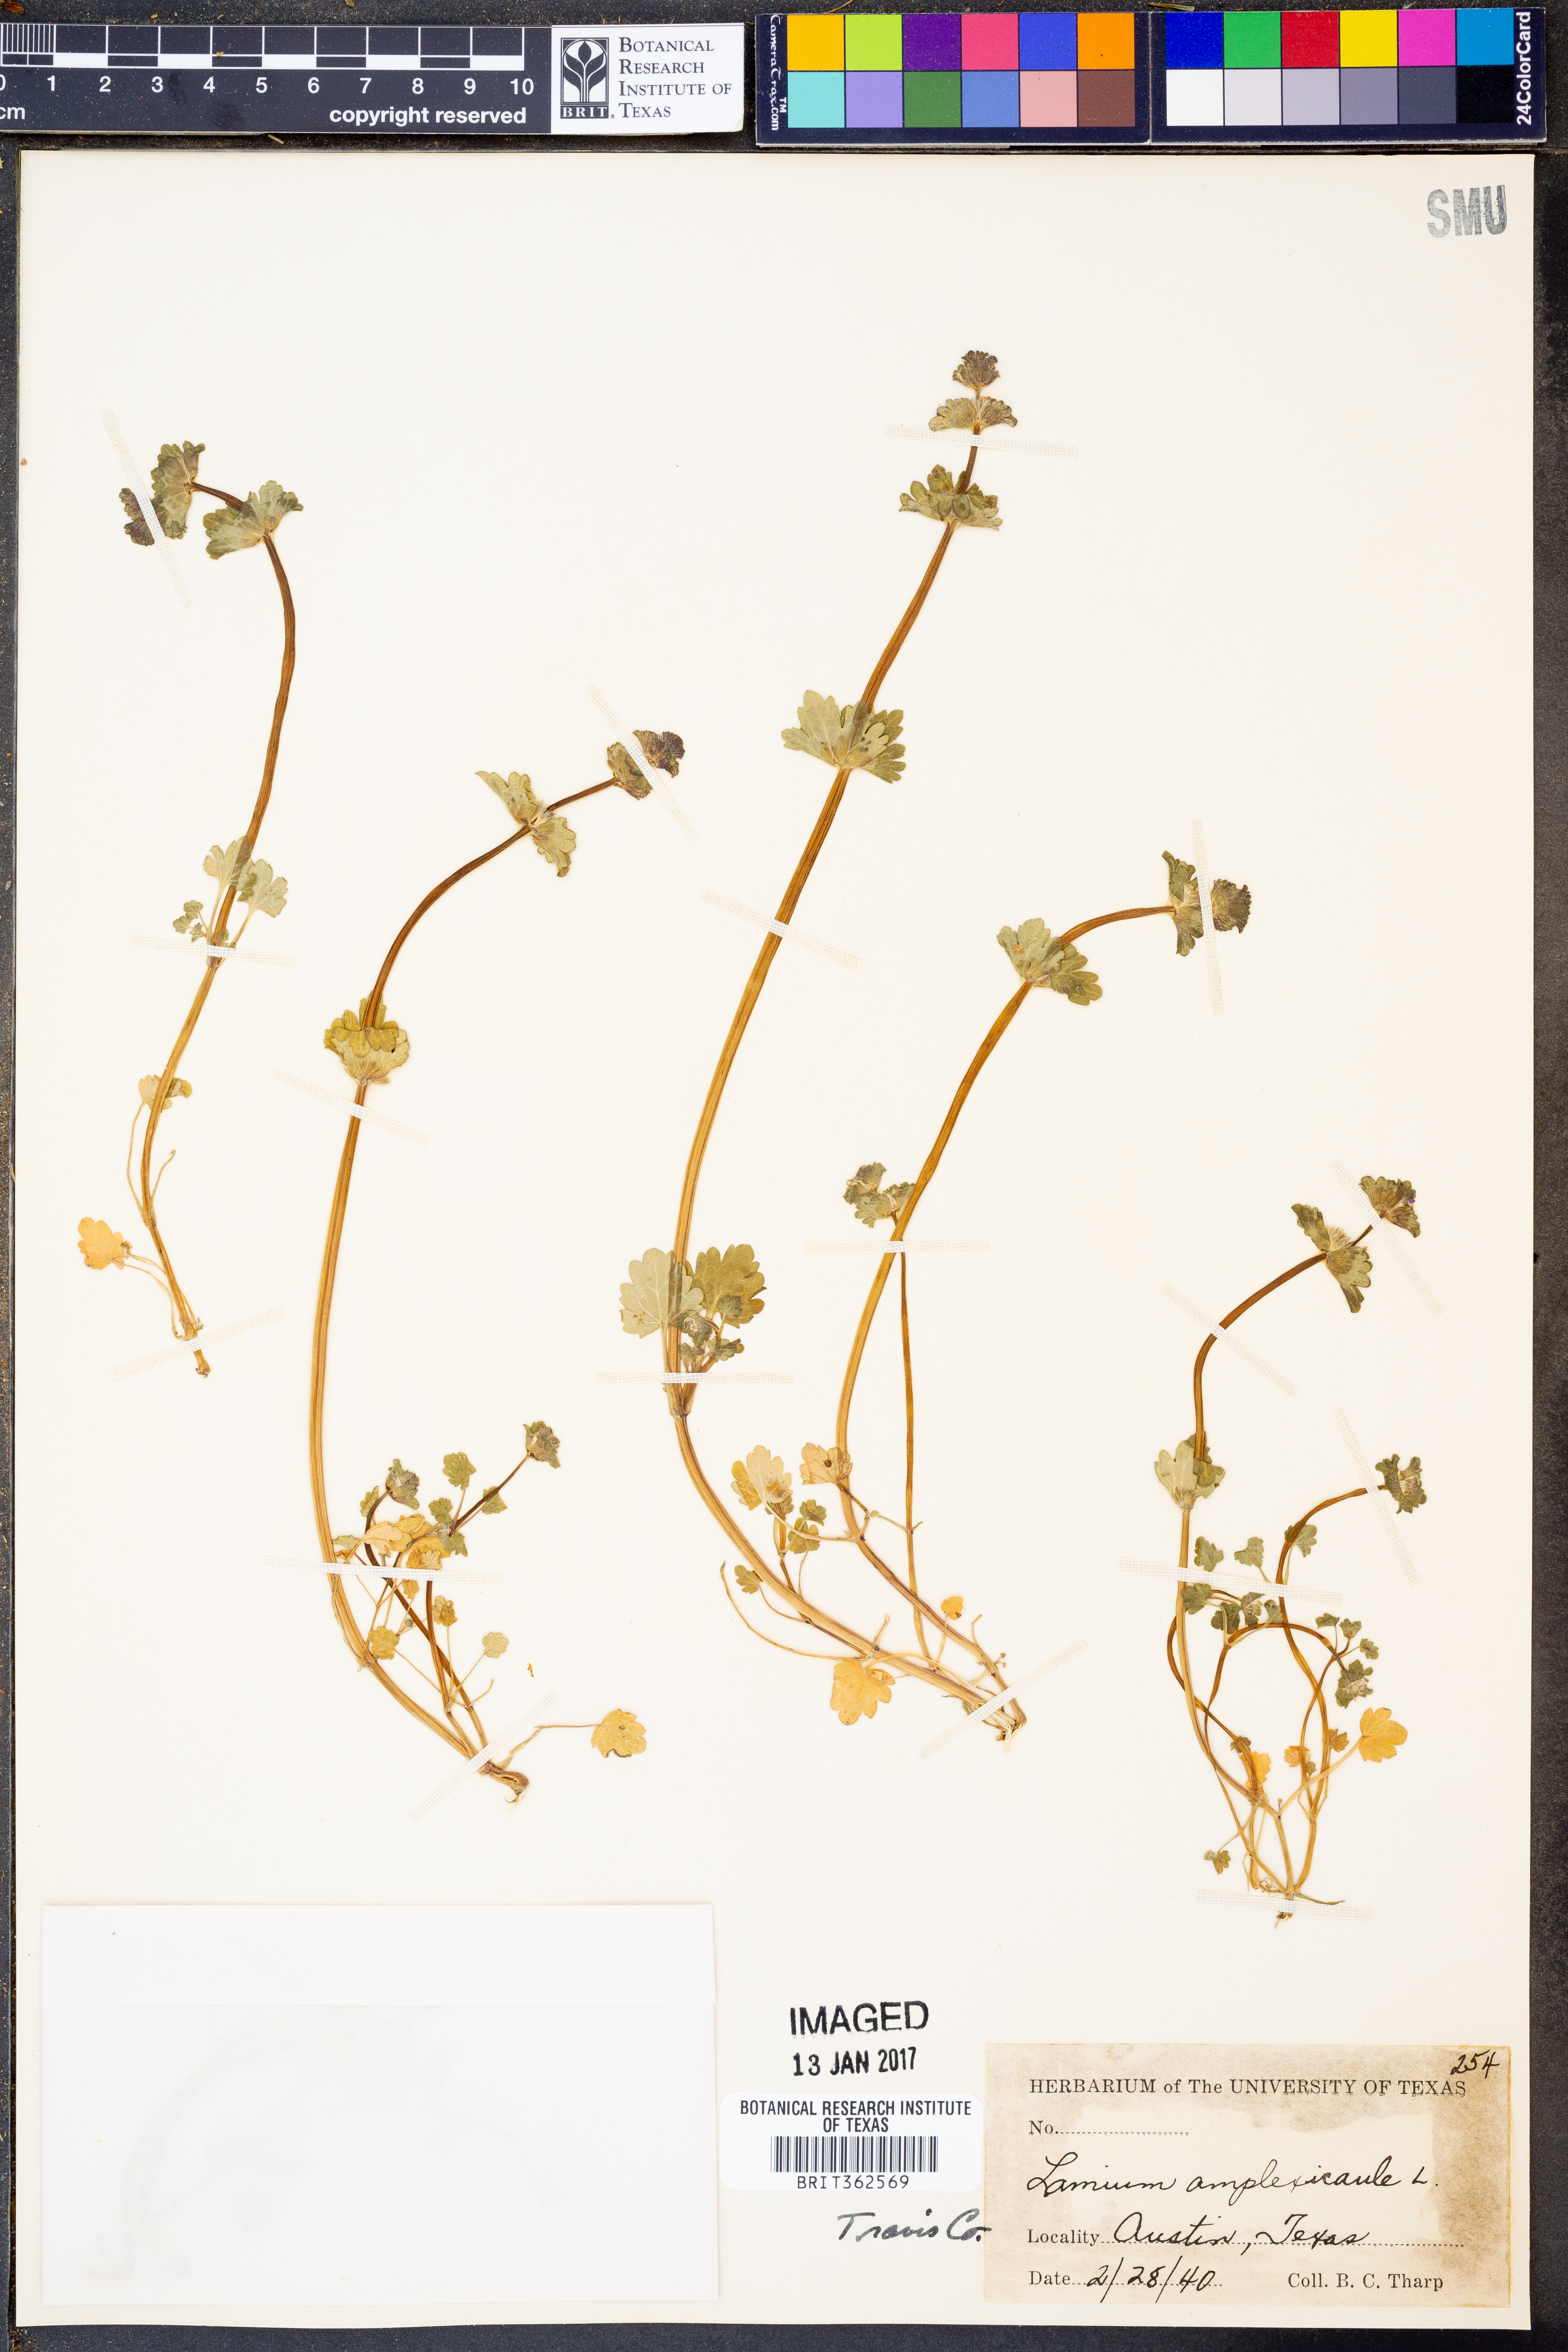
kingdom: Plantae
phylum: Tracheophyta
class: Magnoliopsida
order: Lamiales
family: Lamiaceae
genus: Lamium
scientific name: Lamium amplexicaule
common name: Henbit dead-nettle
